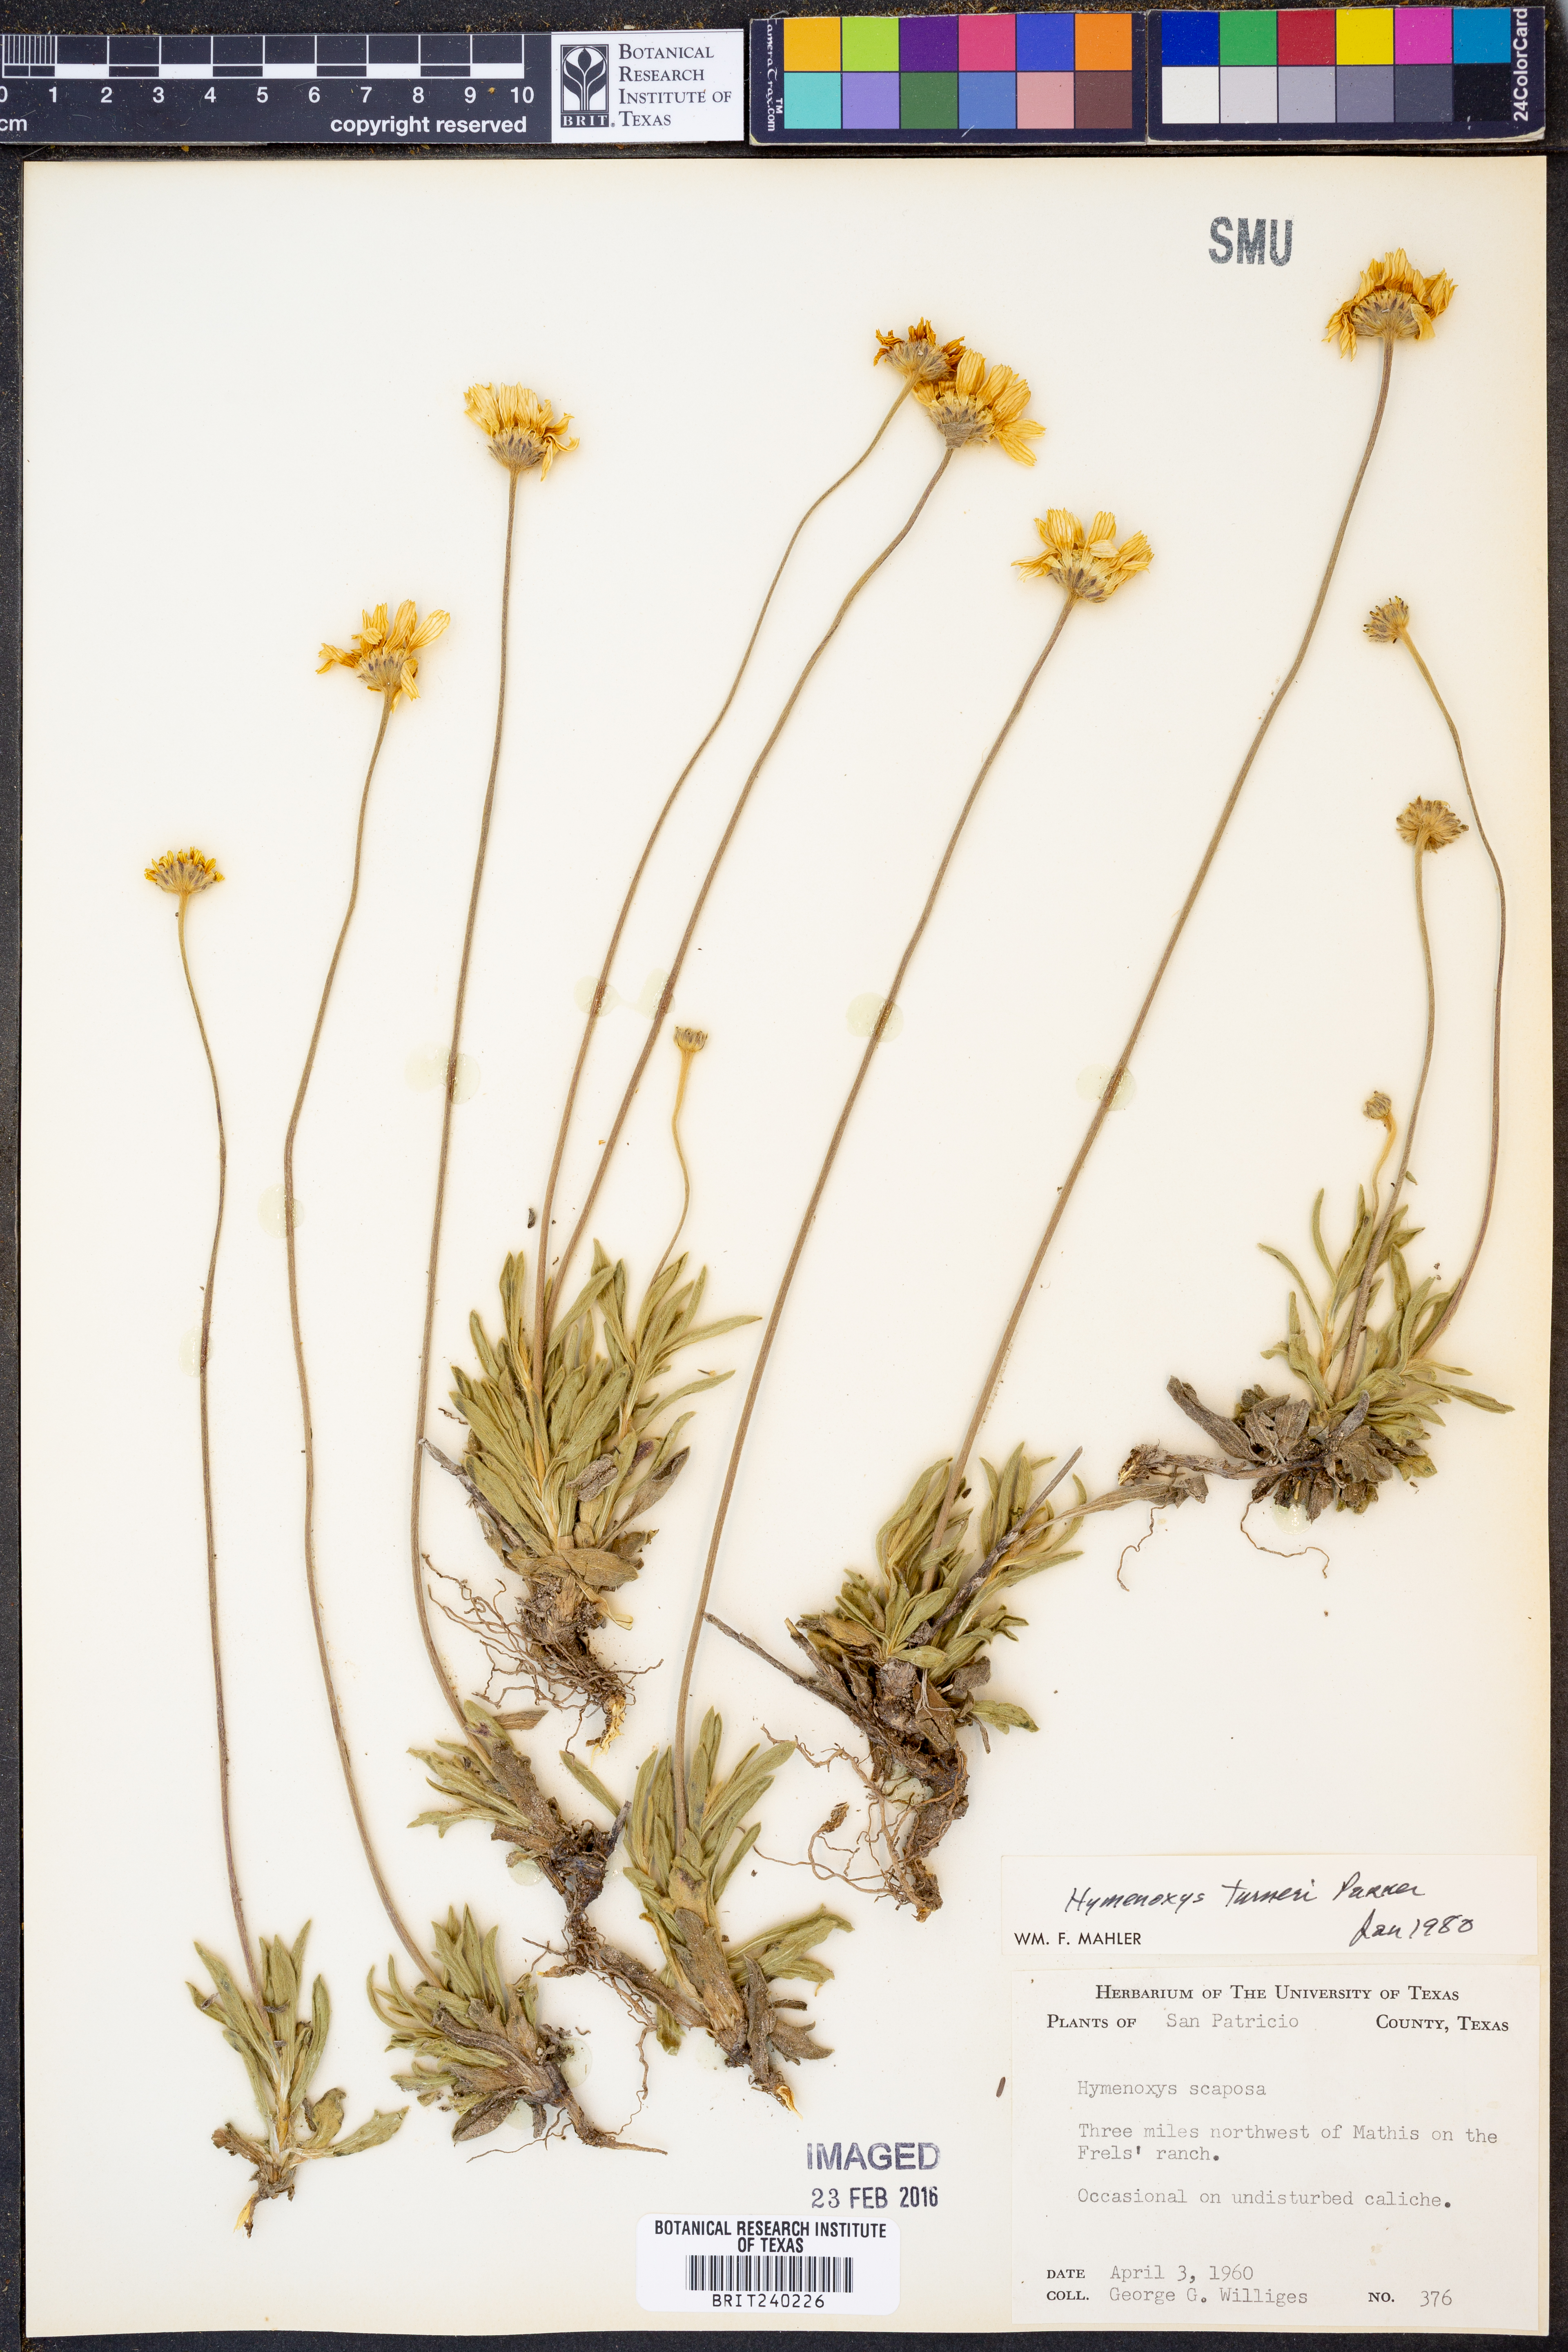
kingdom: Plantae
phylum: Tracheophyta
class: Magnoliopsida
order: Asterales
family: Asteraceae
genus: Tetraneuris
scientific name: Tetraneuris turneri
